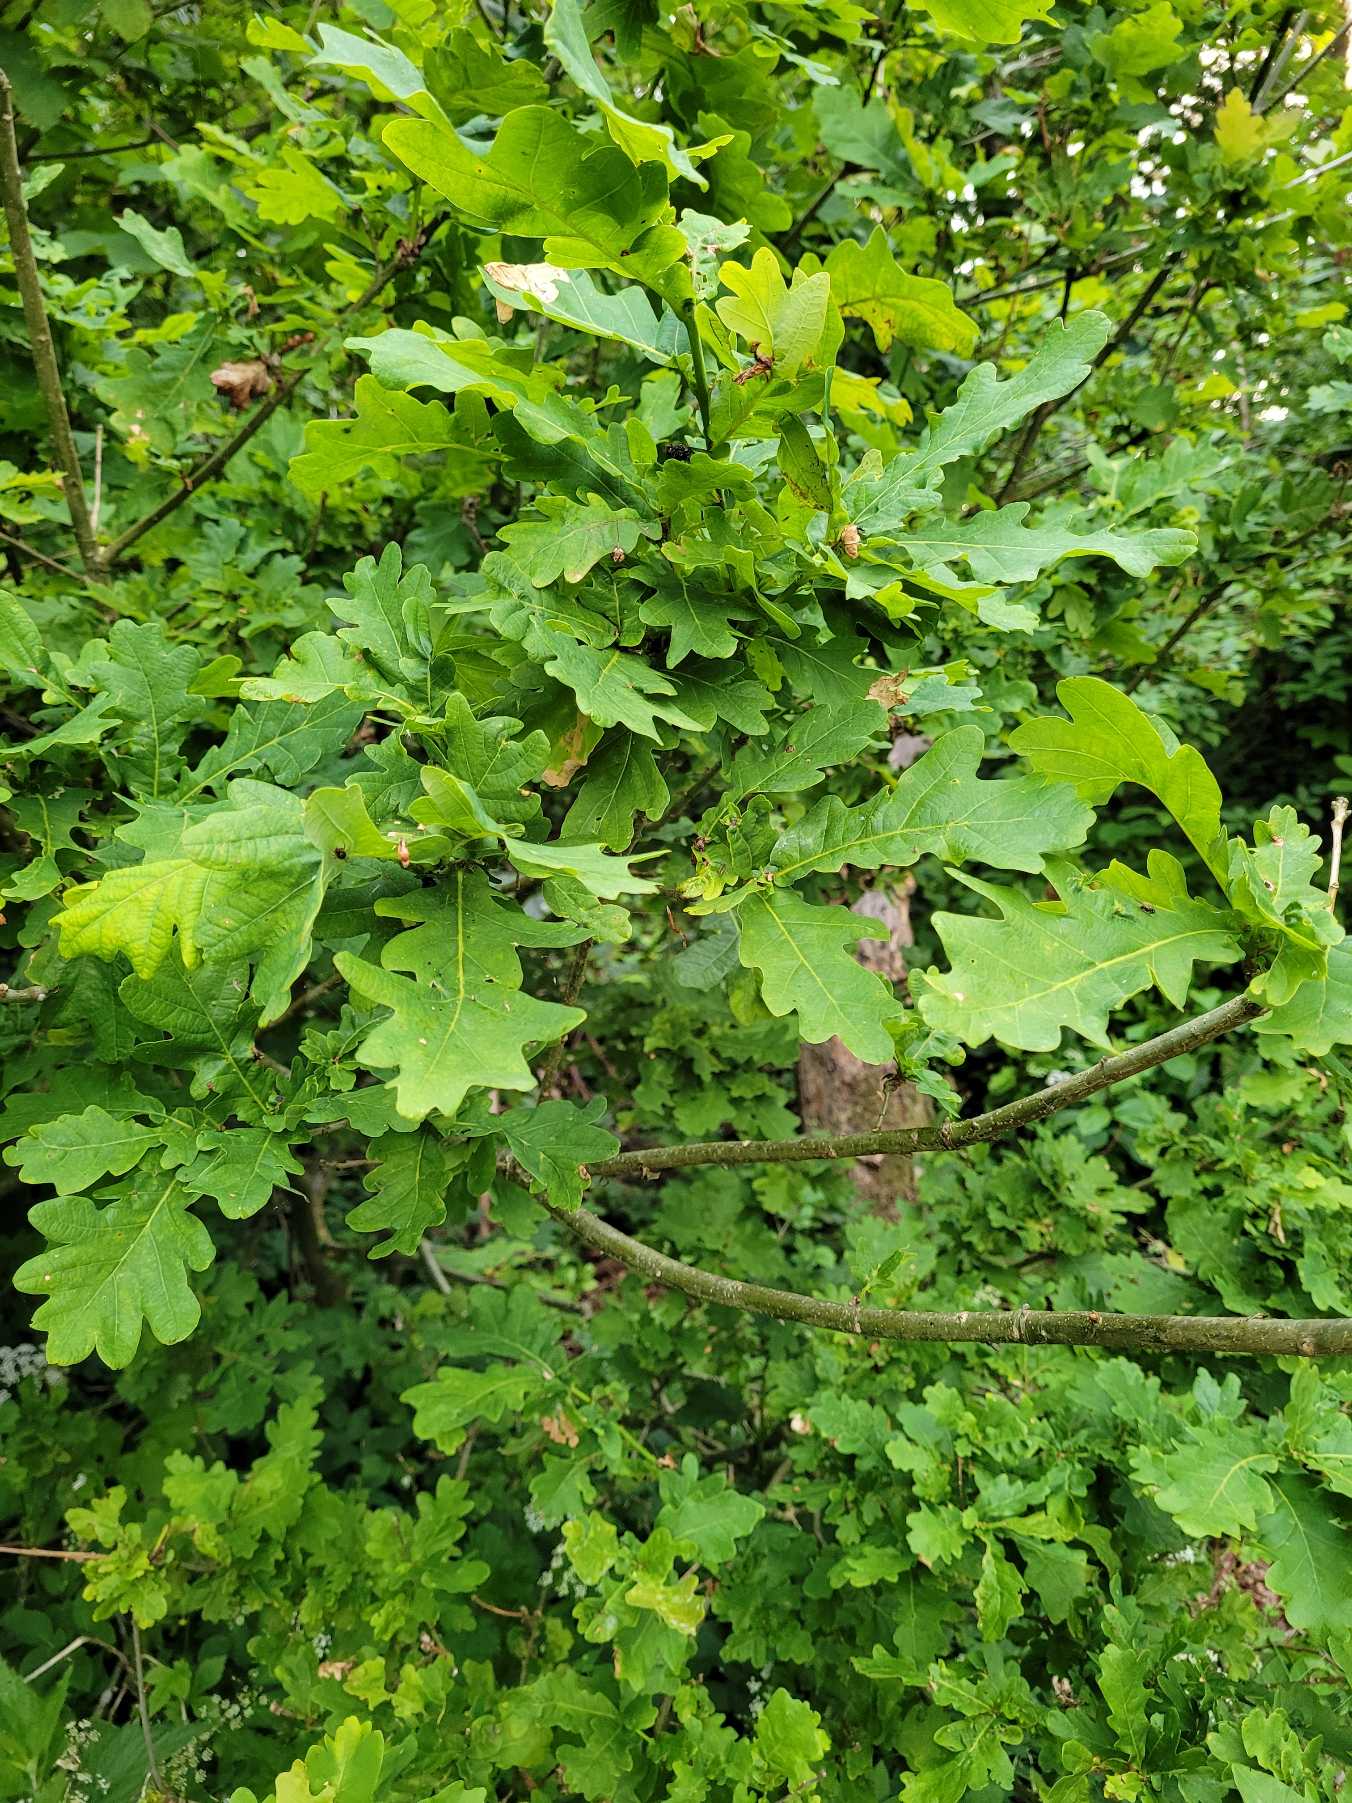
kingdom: Plantae
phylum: Tracheophyta
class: Magnoliopsida
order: Fagales
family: Fagaceae
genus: Quercus
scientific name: Quercus robur
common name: Stilk-eg/almindelig eg
